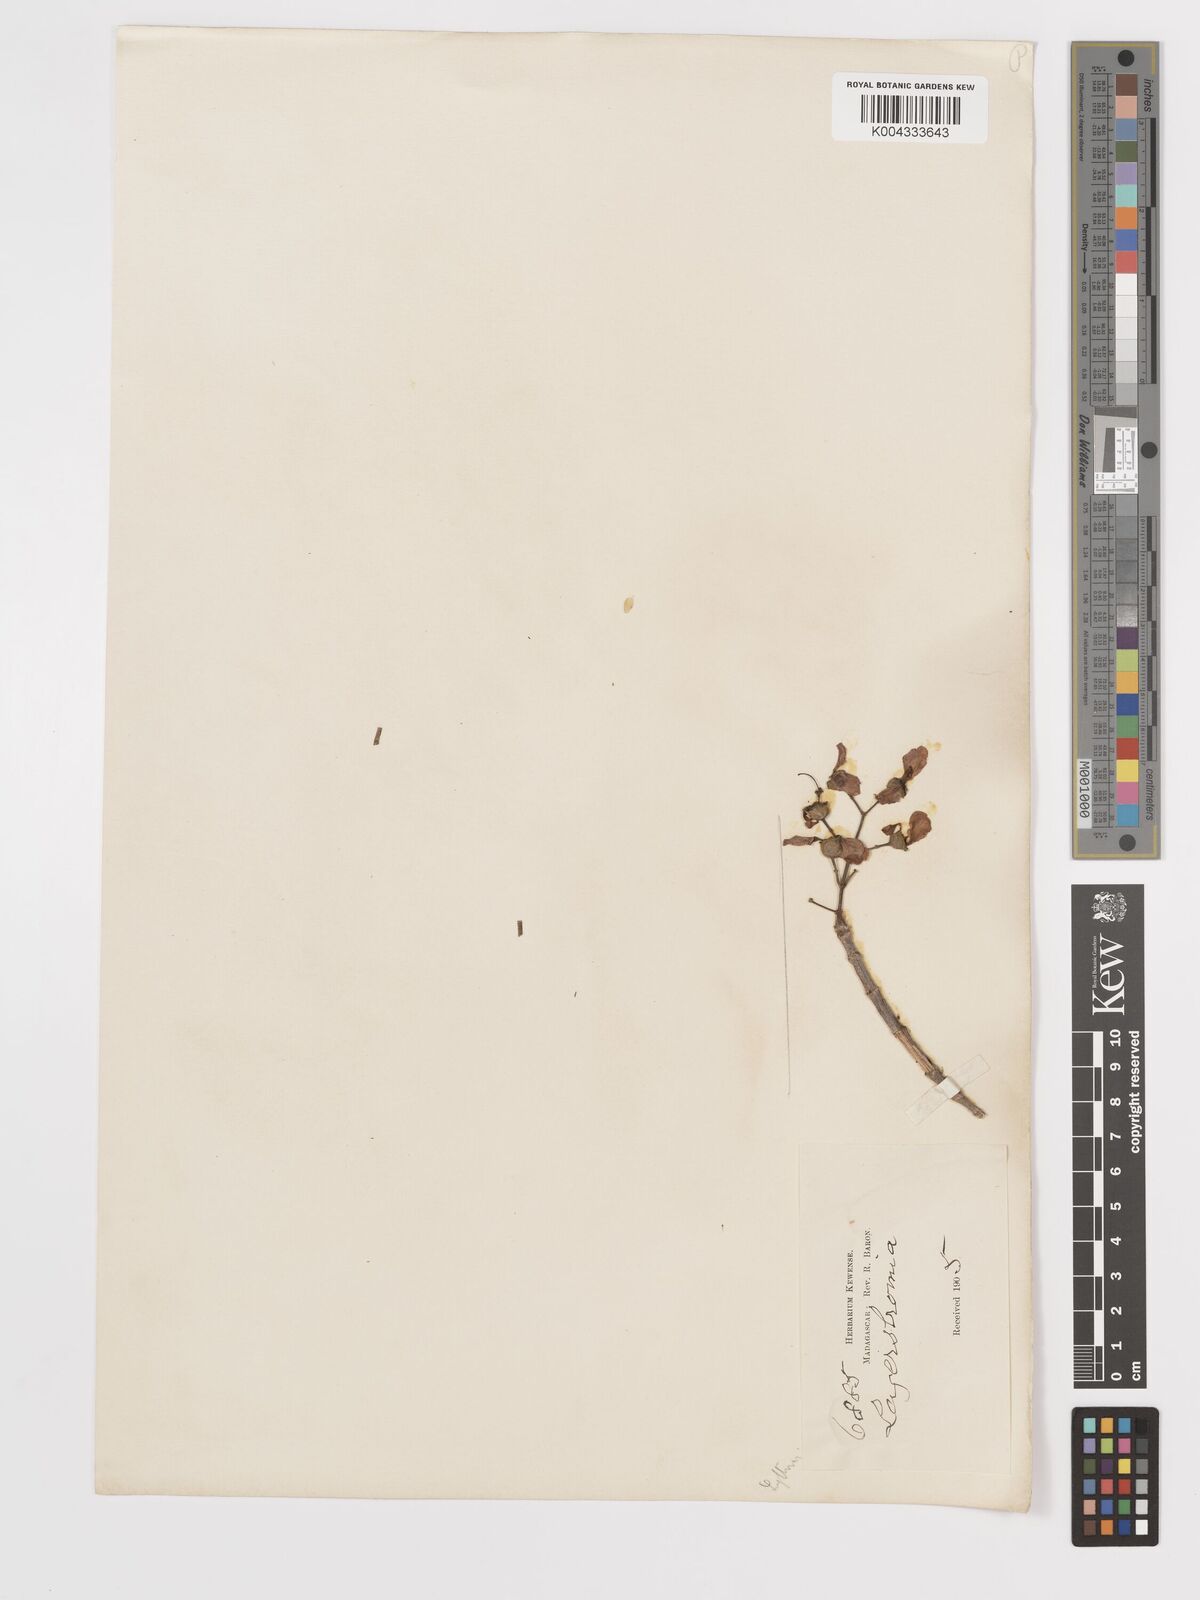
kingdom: Plantae
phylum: Tracheophyta
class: Magnoliopsida
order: Myrtales
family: Lythraceae
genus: Lagerstroemia
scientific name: Lagerstroemia indica
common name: Crape-myrtle
